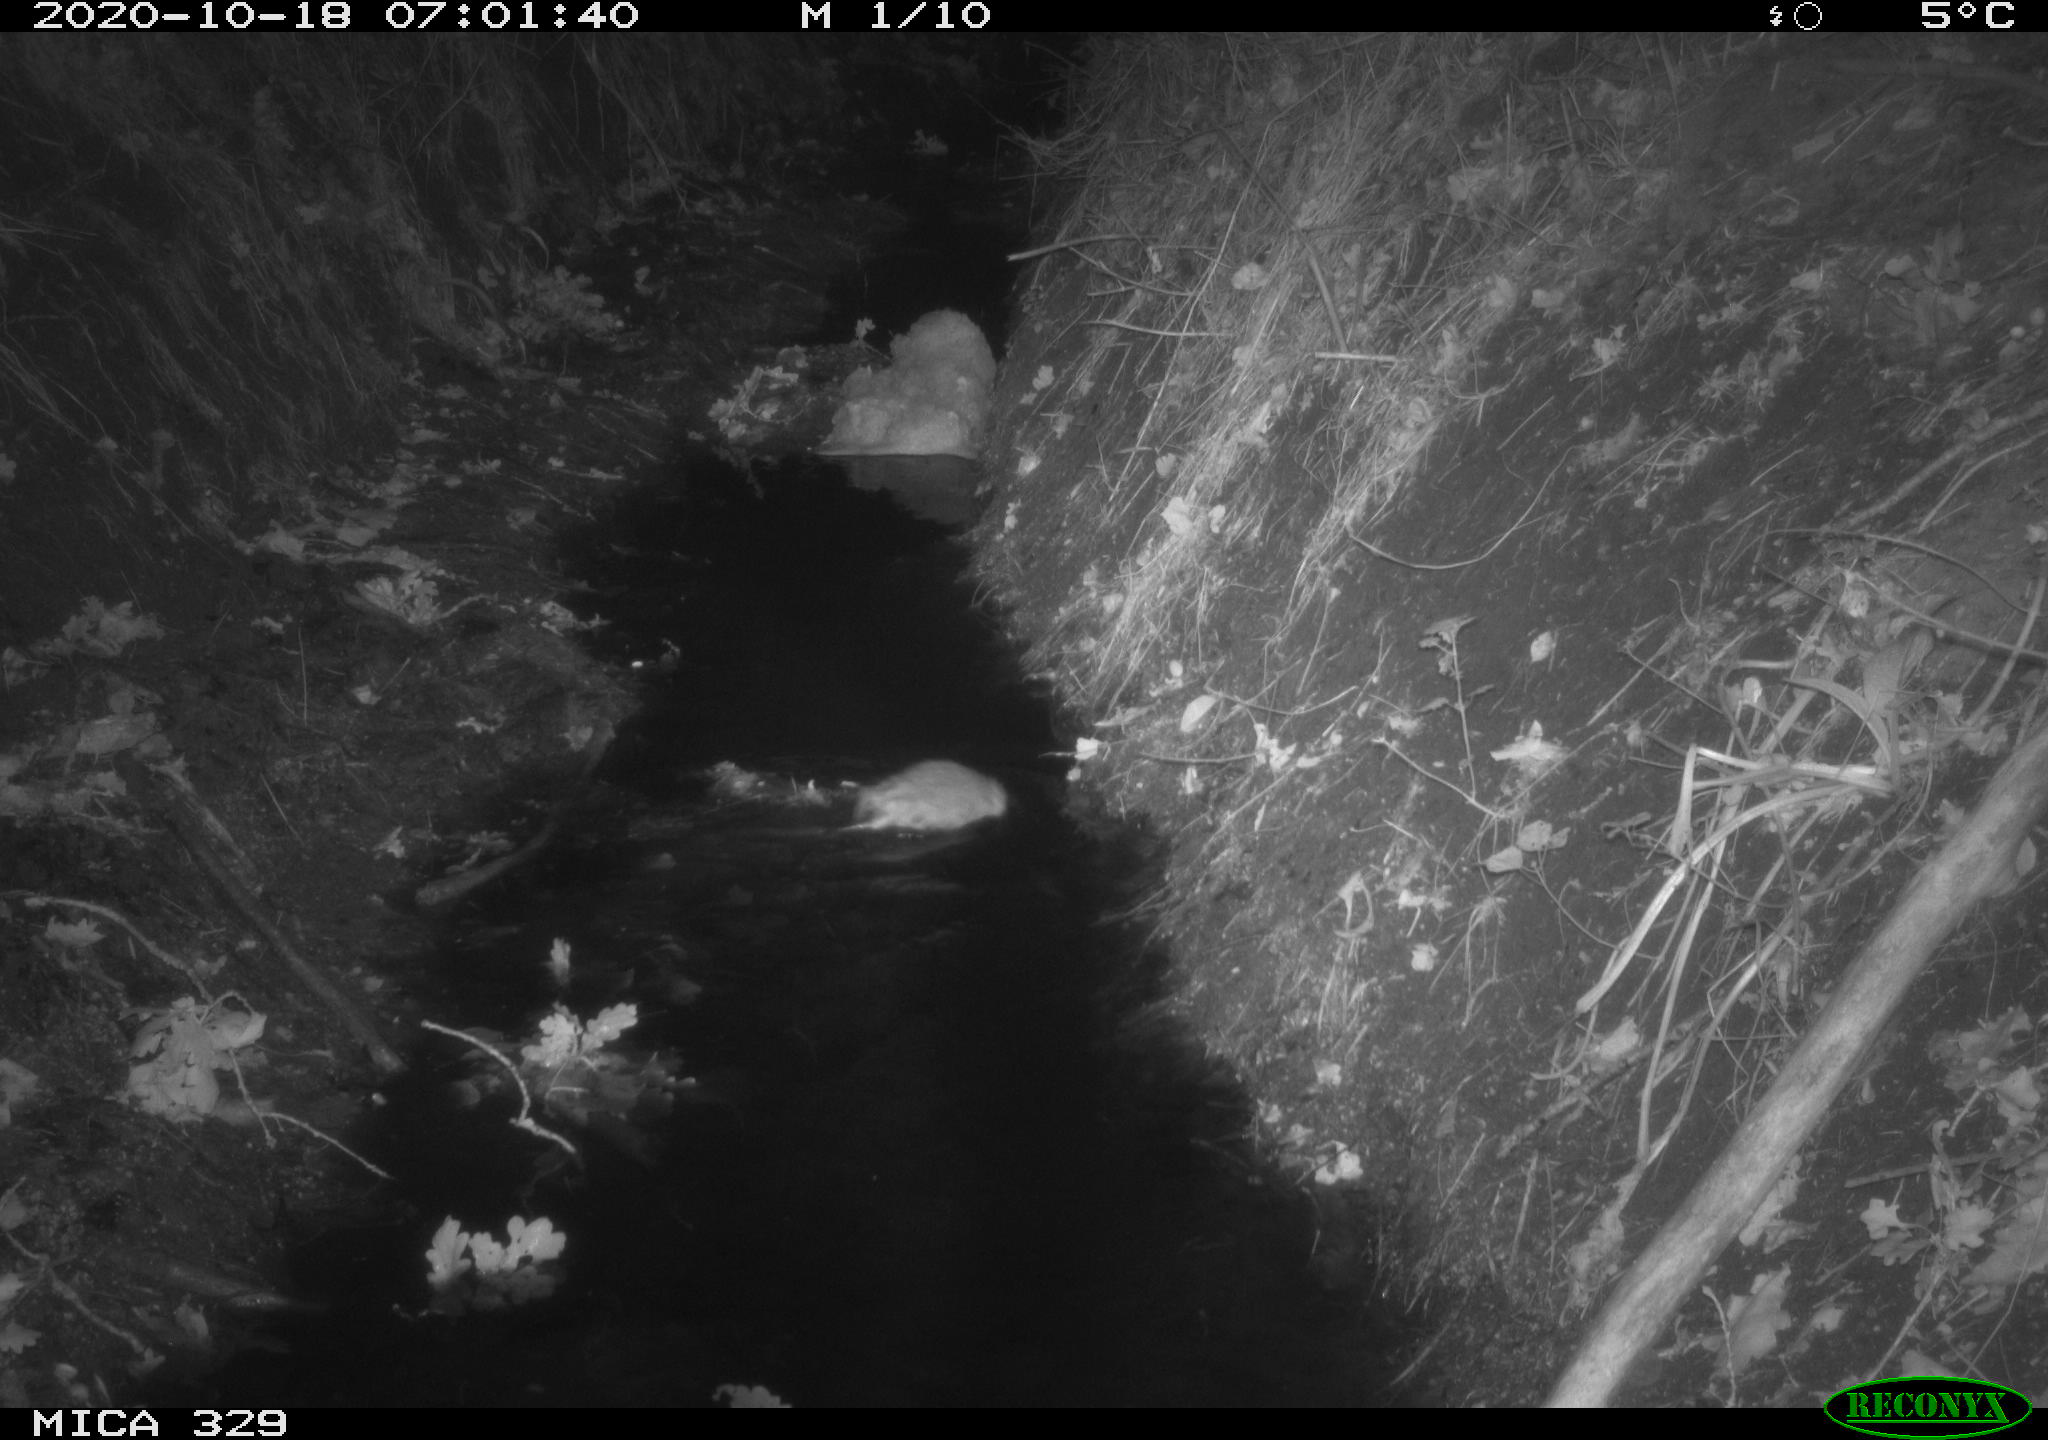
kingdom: Animalia
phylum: Chordata
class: Mammalia
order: Rodentia
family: Cricetidae
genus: Ondatra
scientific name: Ondatra zibethicus
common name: Muskrat
